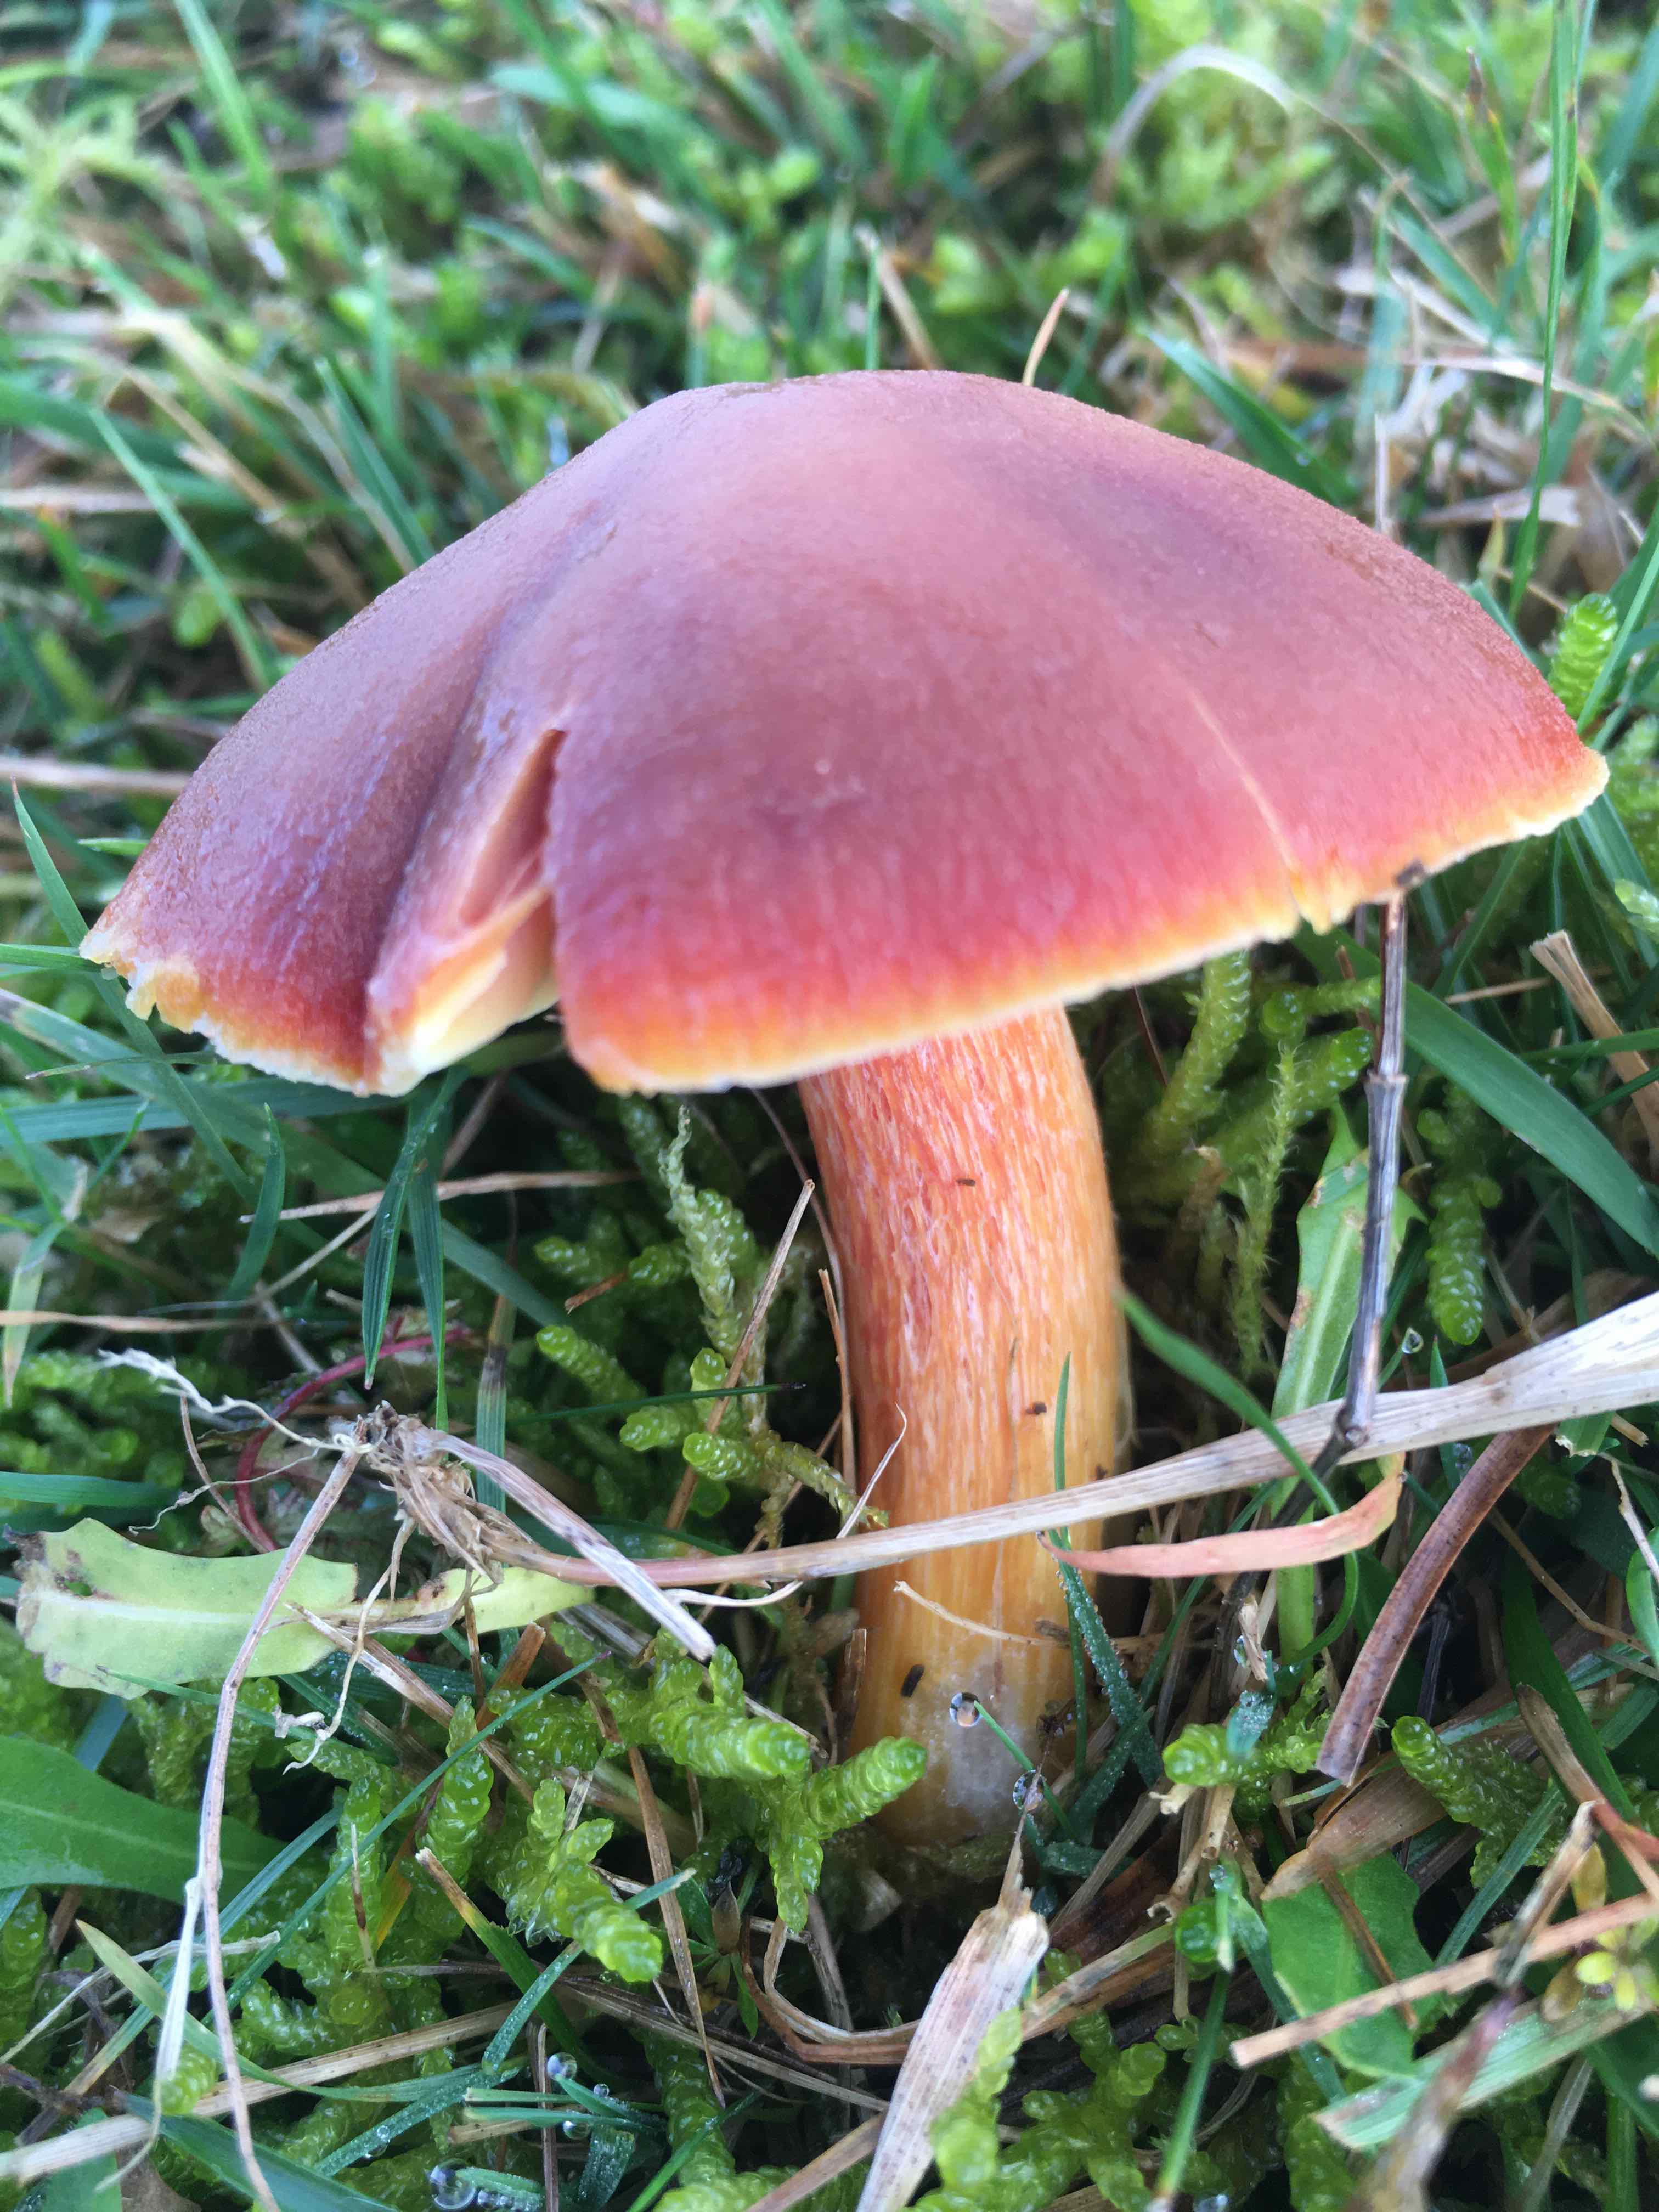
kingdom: Fungi
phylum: Basidiomycota
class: Agaricomycetes
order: Agaricales
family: Hygrophoraceae
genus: Hygrocybe
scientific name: Hygrocybe punicea
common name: skarlagen-vokshat
